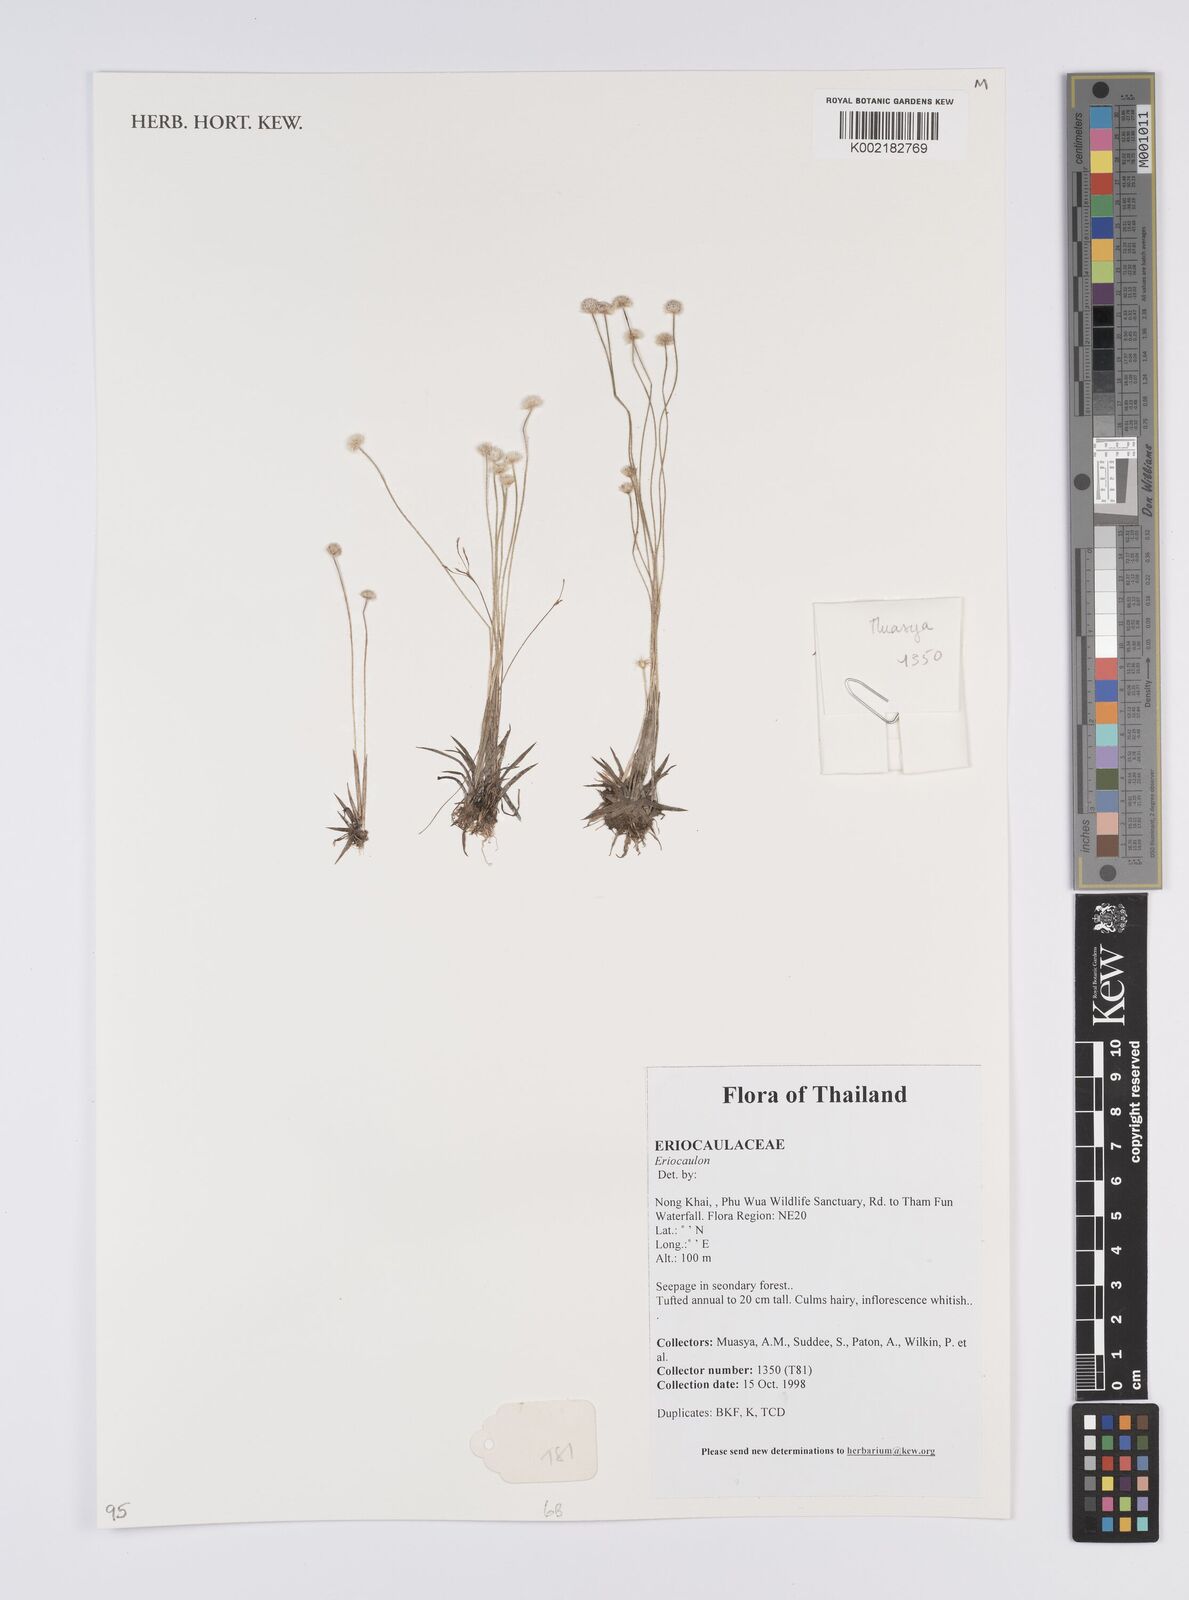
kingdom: Plantae
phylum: Tracheophyta
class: Liliopsida
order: Poales
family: Eriocaulaceae
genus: Eriocaulon
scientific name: Eriocaulon
